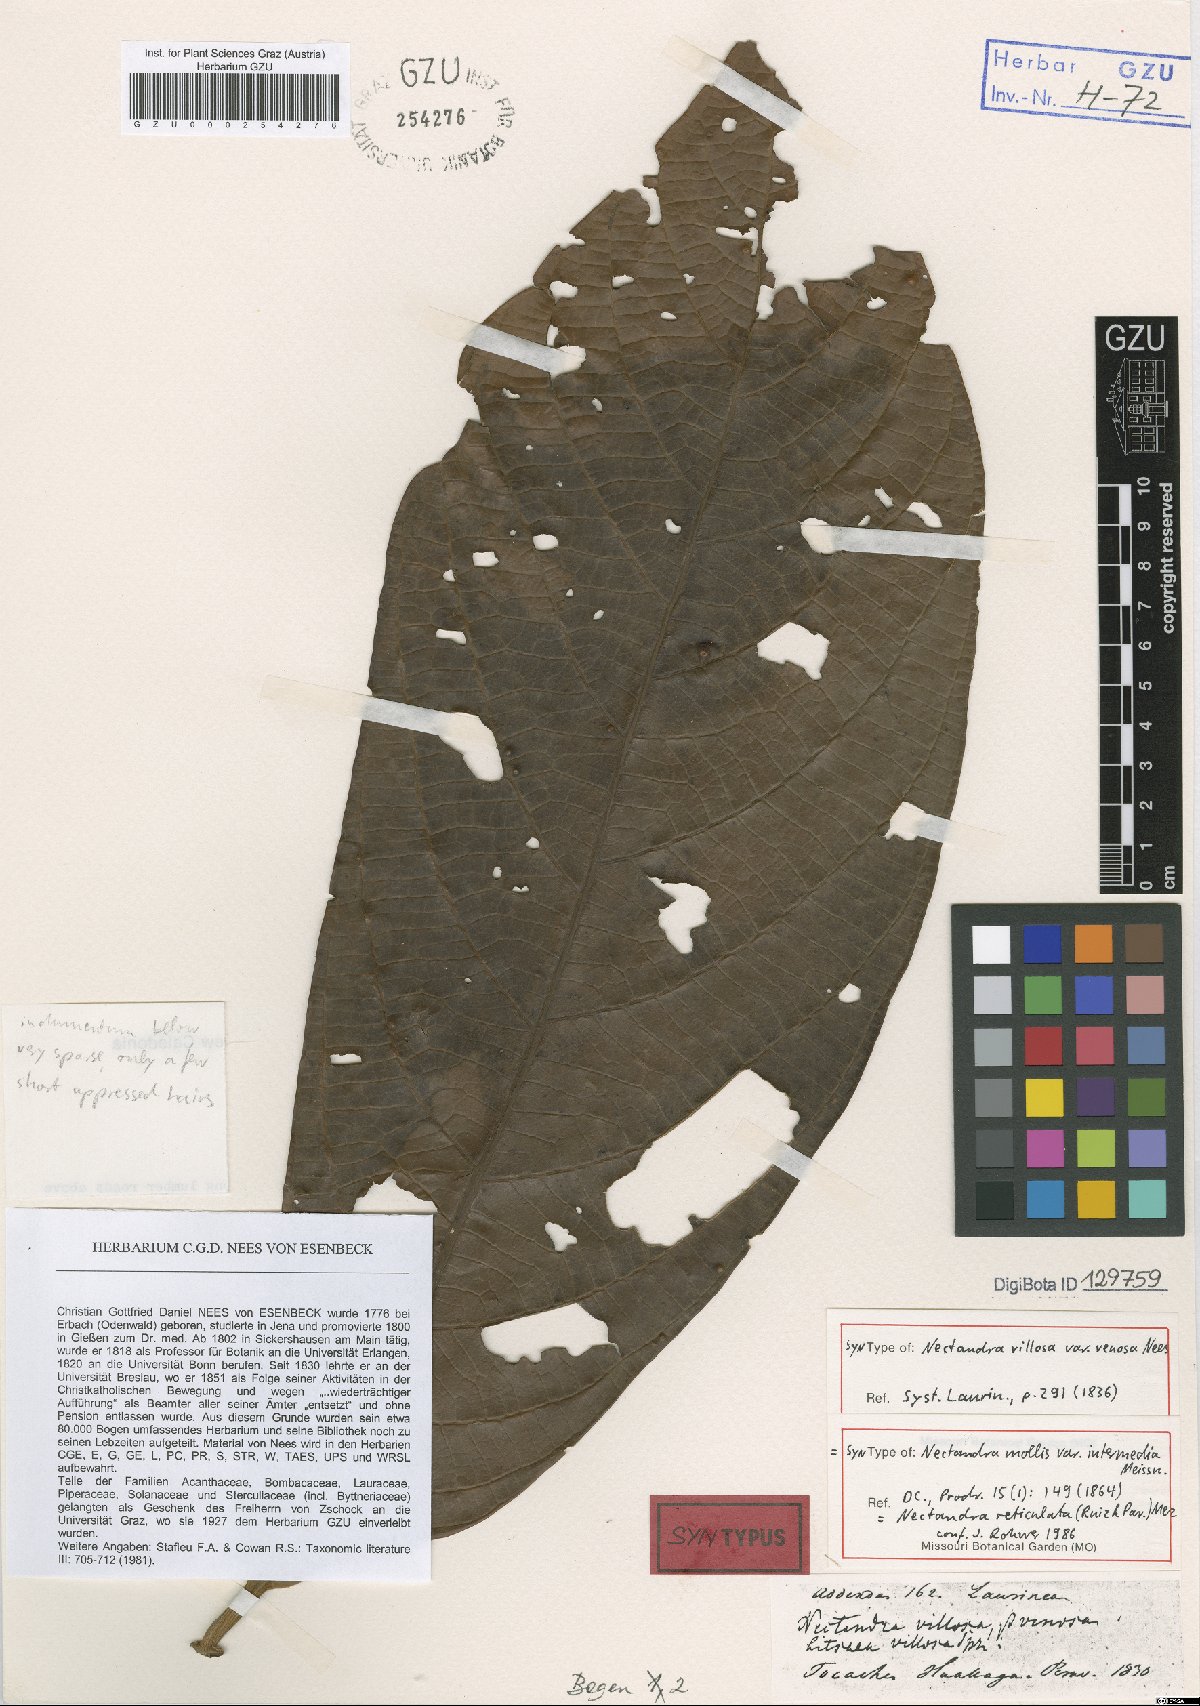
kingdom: Plantae
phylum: Tracheophyta
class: Magnoliopsida
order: Laurales
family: Lauraceae
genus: Nectandra
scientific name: Nectandra villosa
